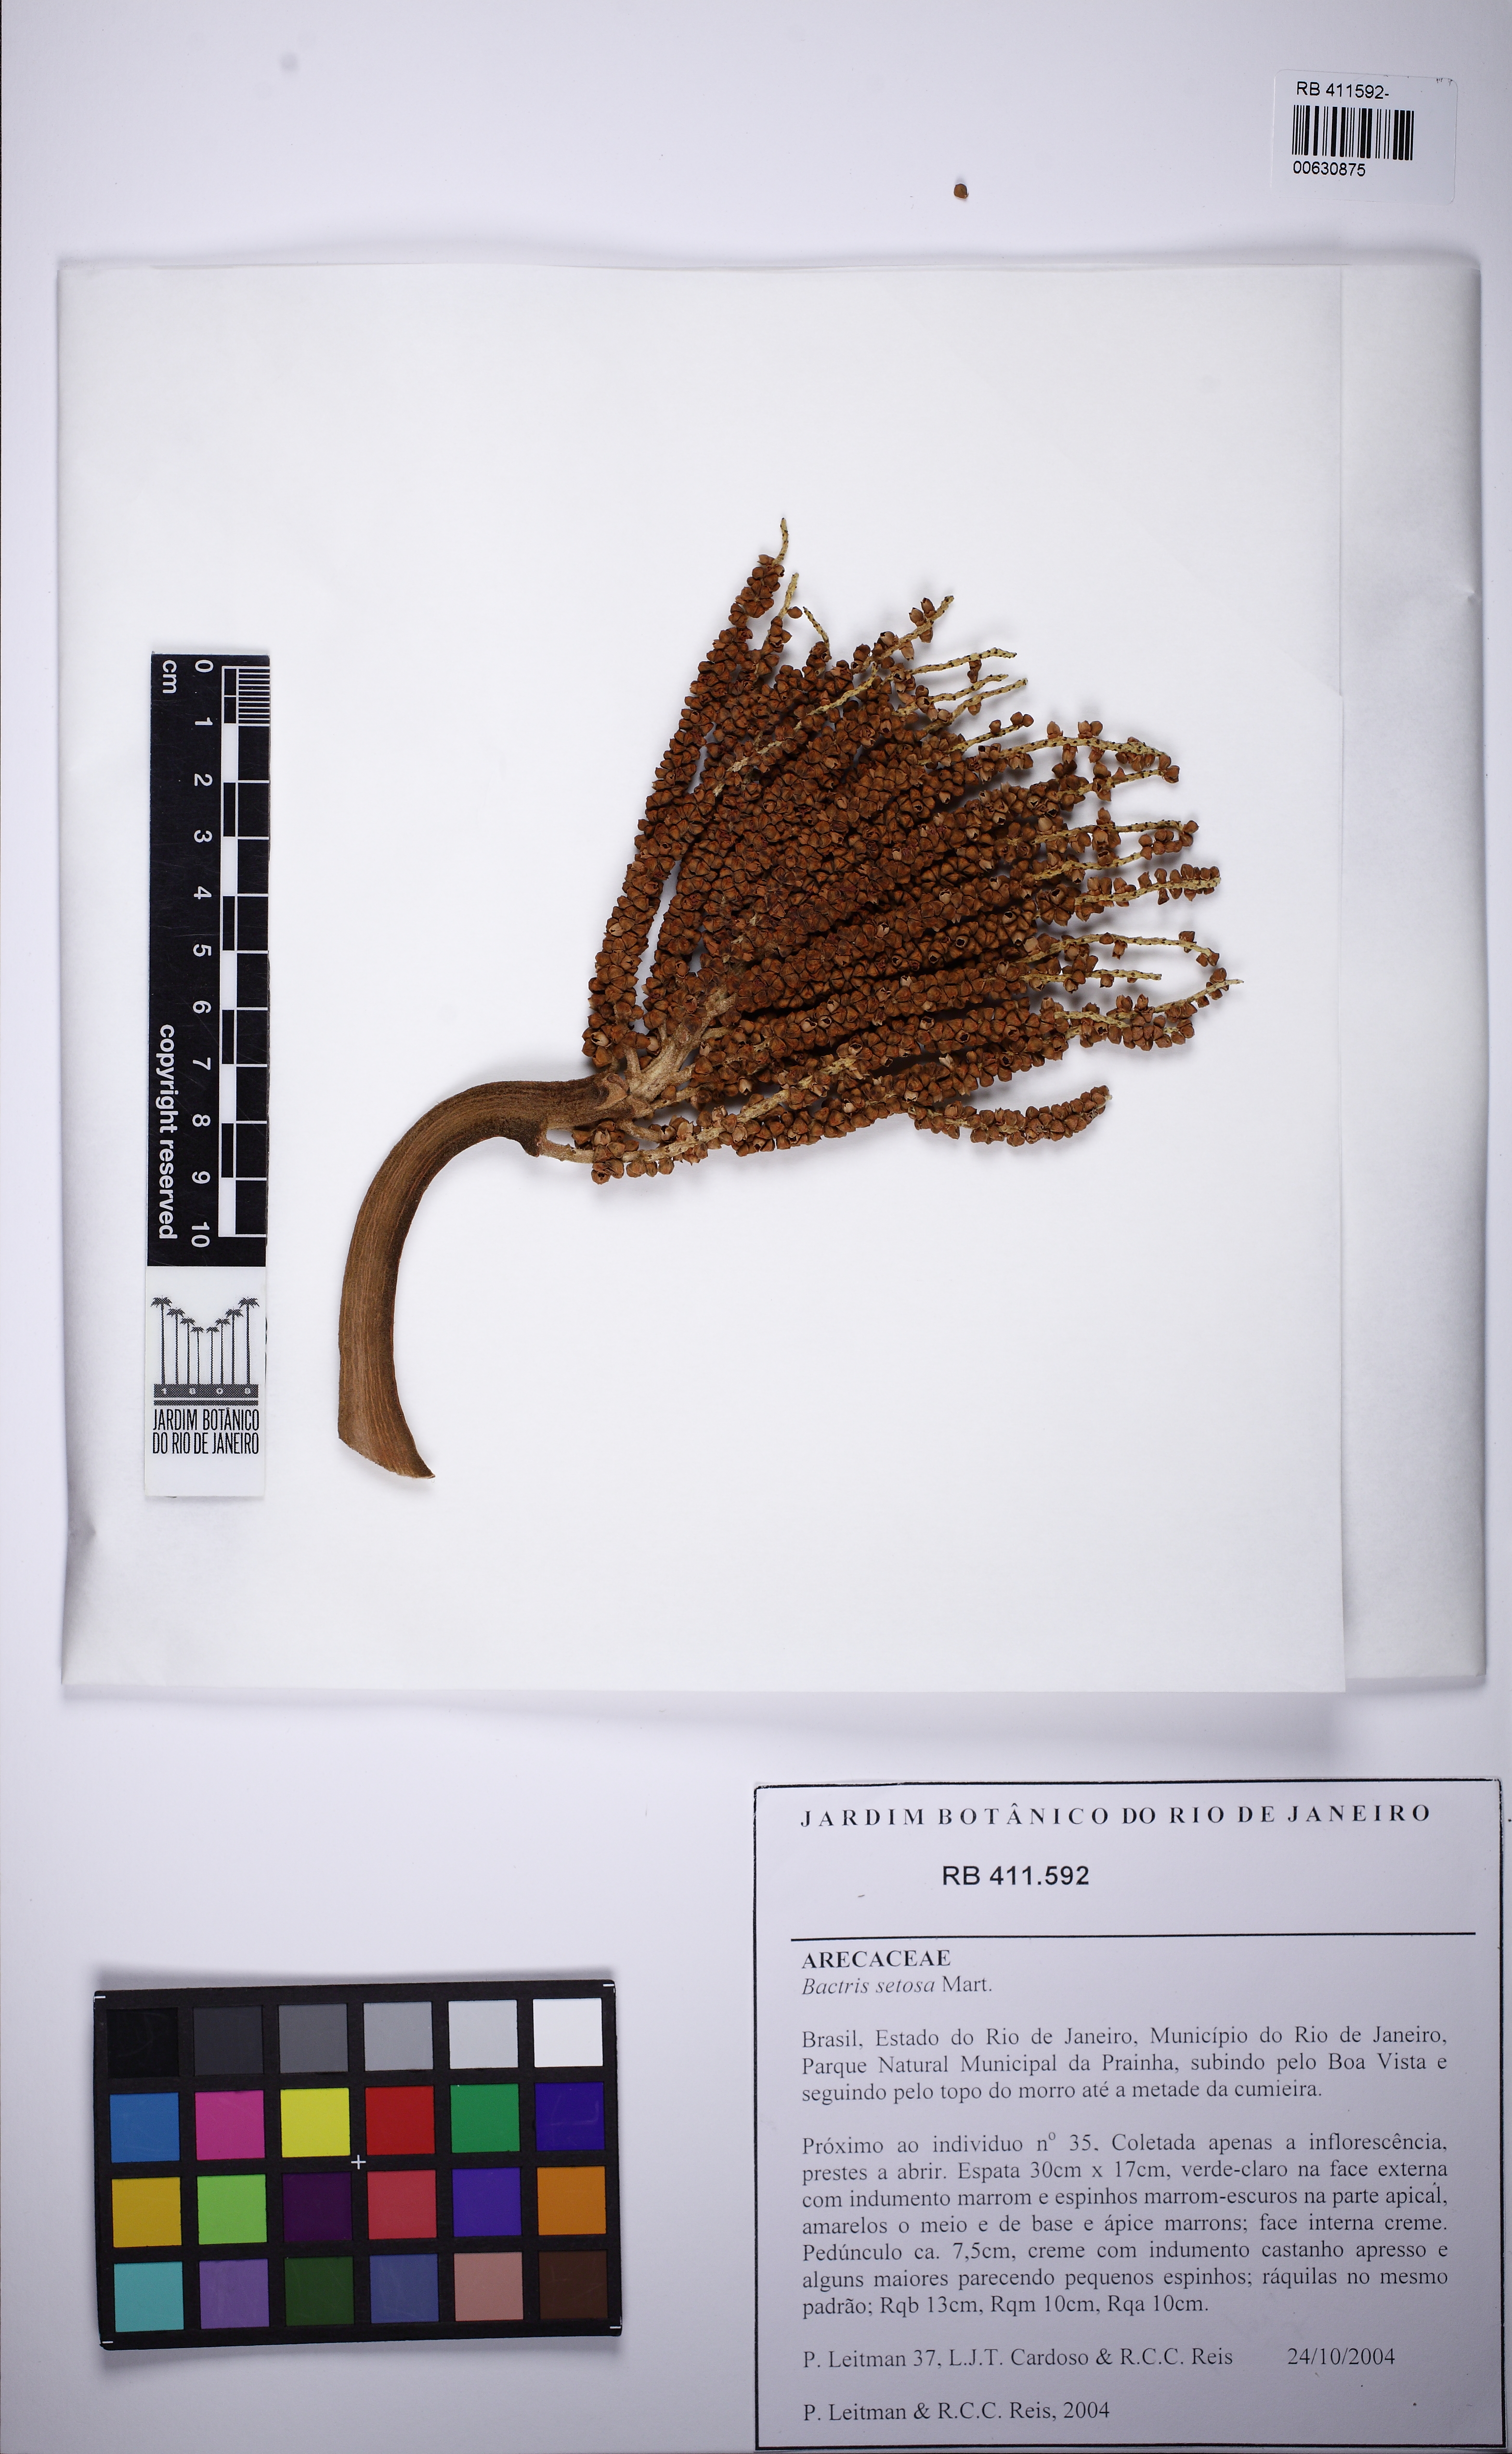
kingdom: Plantae
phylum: Tracheophyta
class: Liliopsida
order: Arecales
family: Arecaceae
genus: Bactris
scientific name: Bactris setosa
